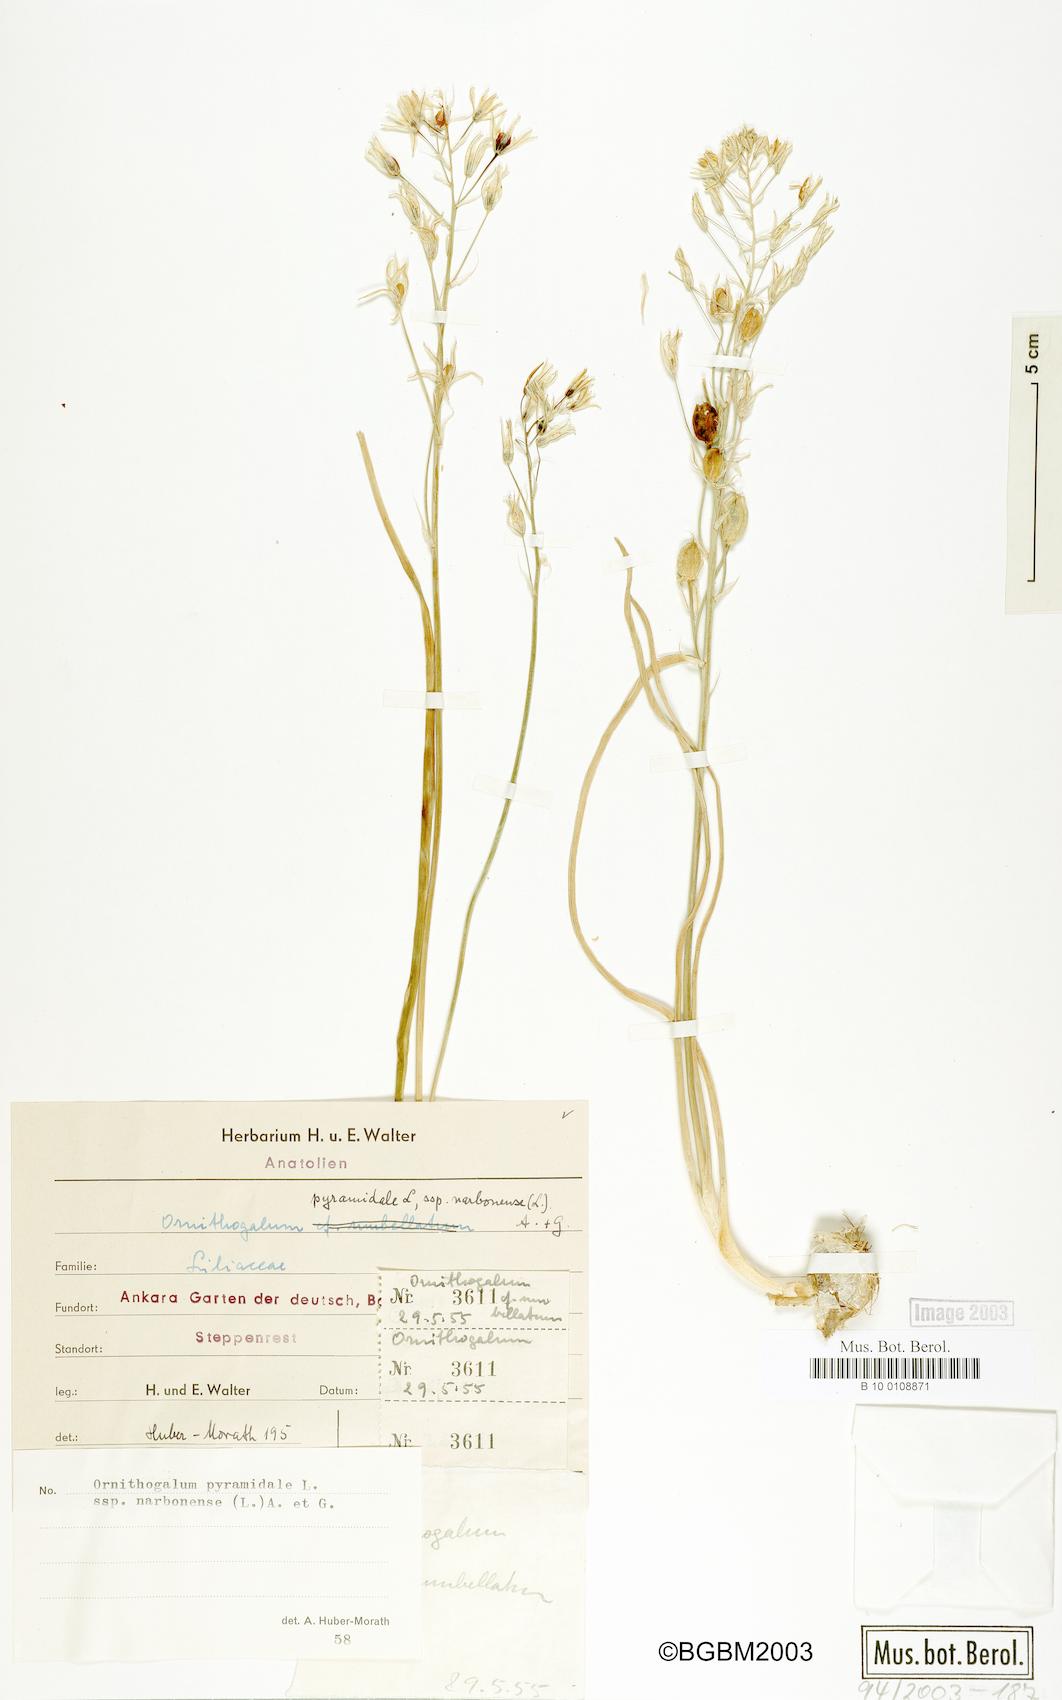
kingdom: Plantae
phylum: Tracheophyta
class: Liliopsida
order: Asparagales
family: Asparagaceae
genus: Ornithogalum
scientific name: Ornithogalum narbonense
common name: Bath-asparagus
